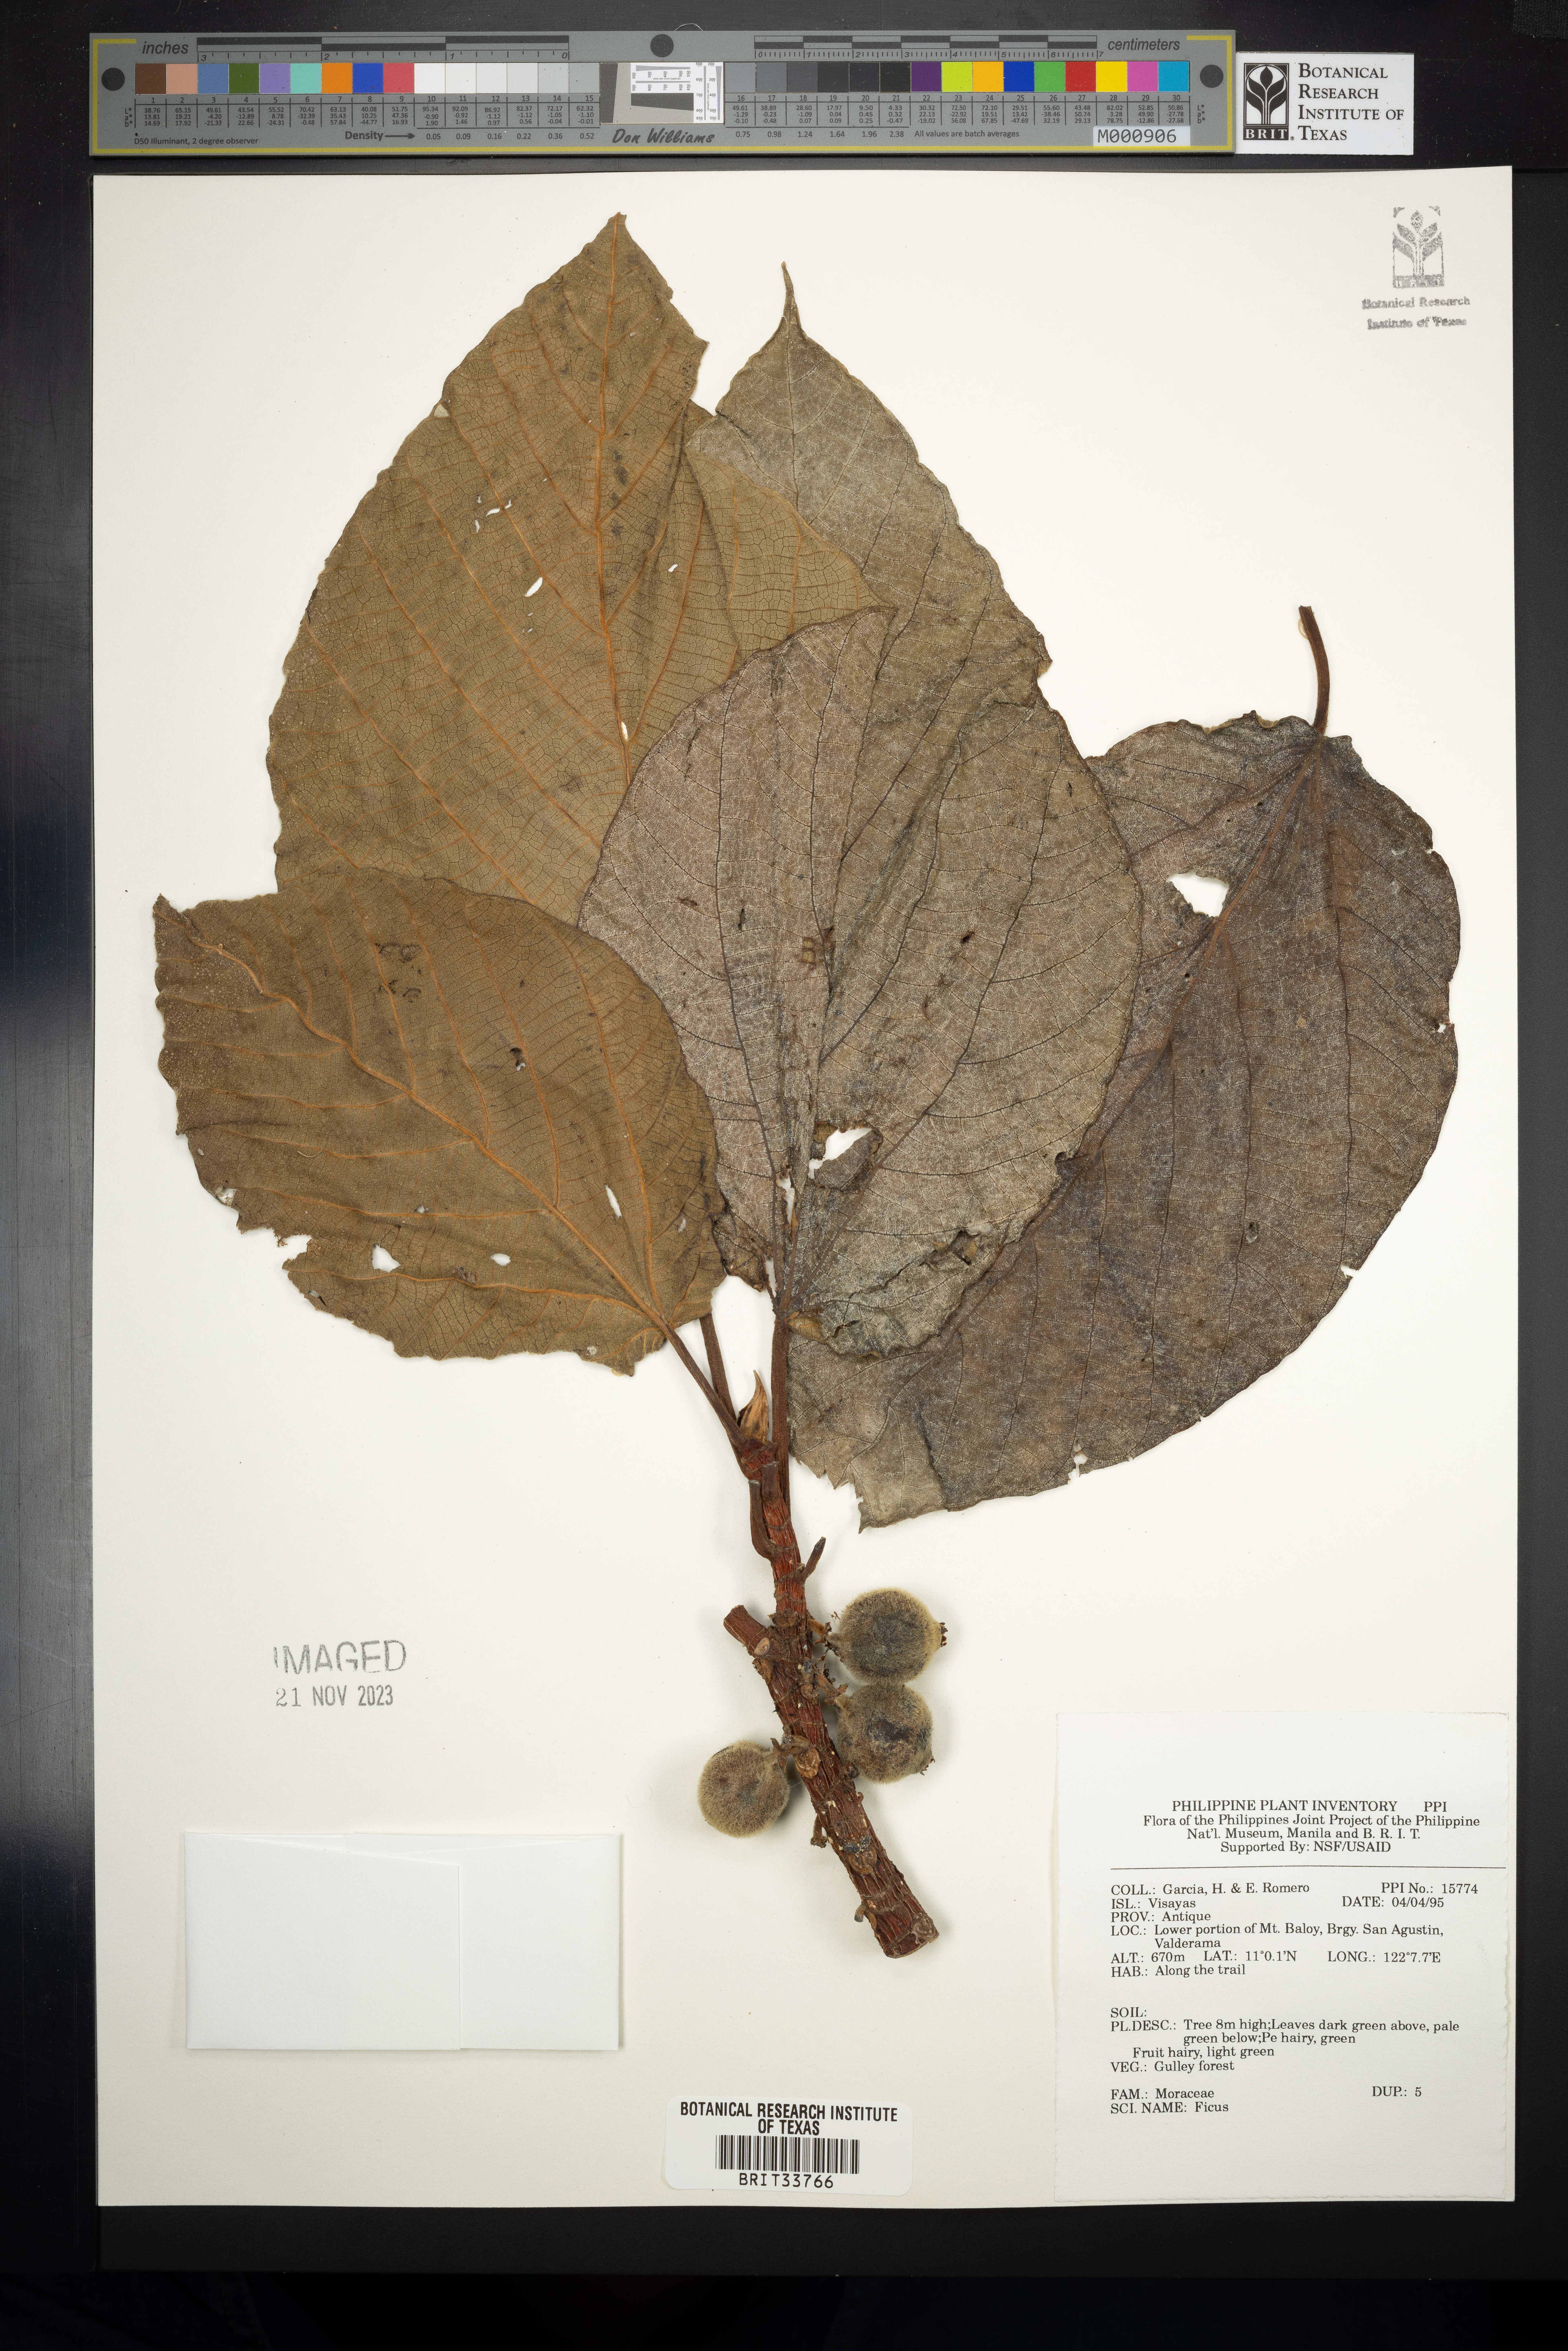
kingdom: Plantae
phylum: Tracheophyta
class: Magnoliopsida
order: Rosales
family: Moraceae
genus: Ficus
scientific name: Ficus
